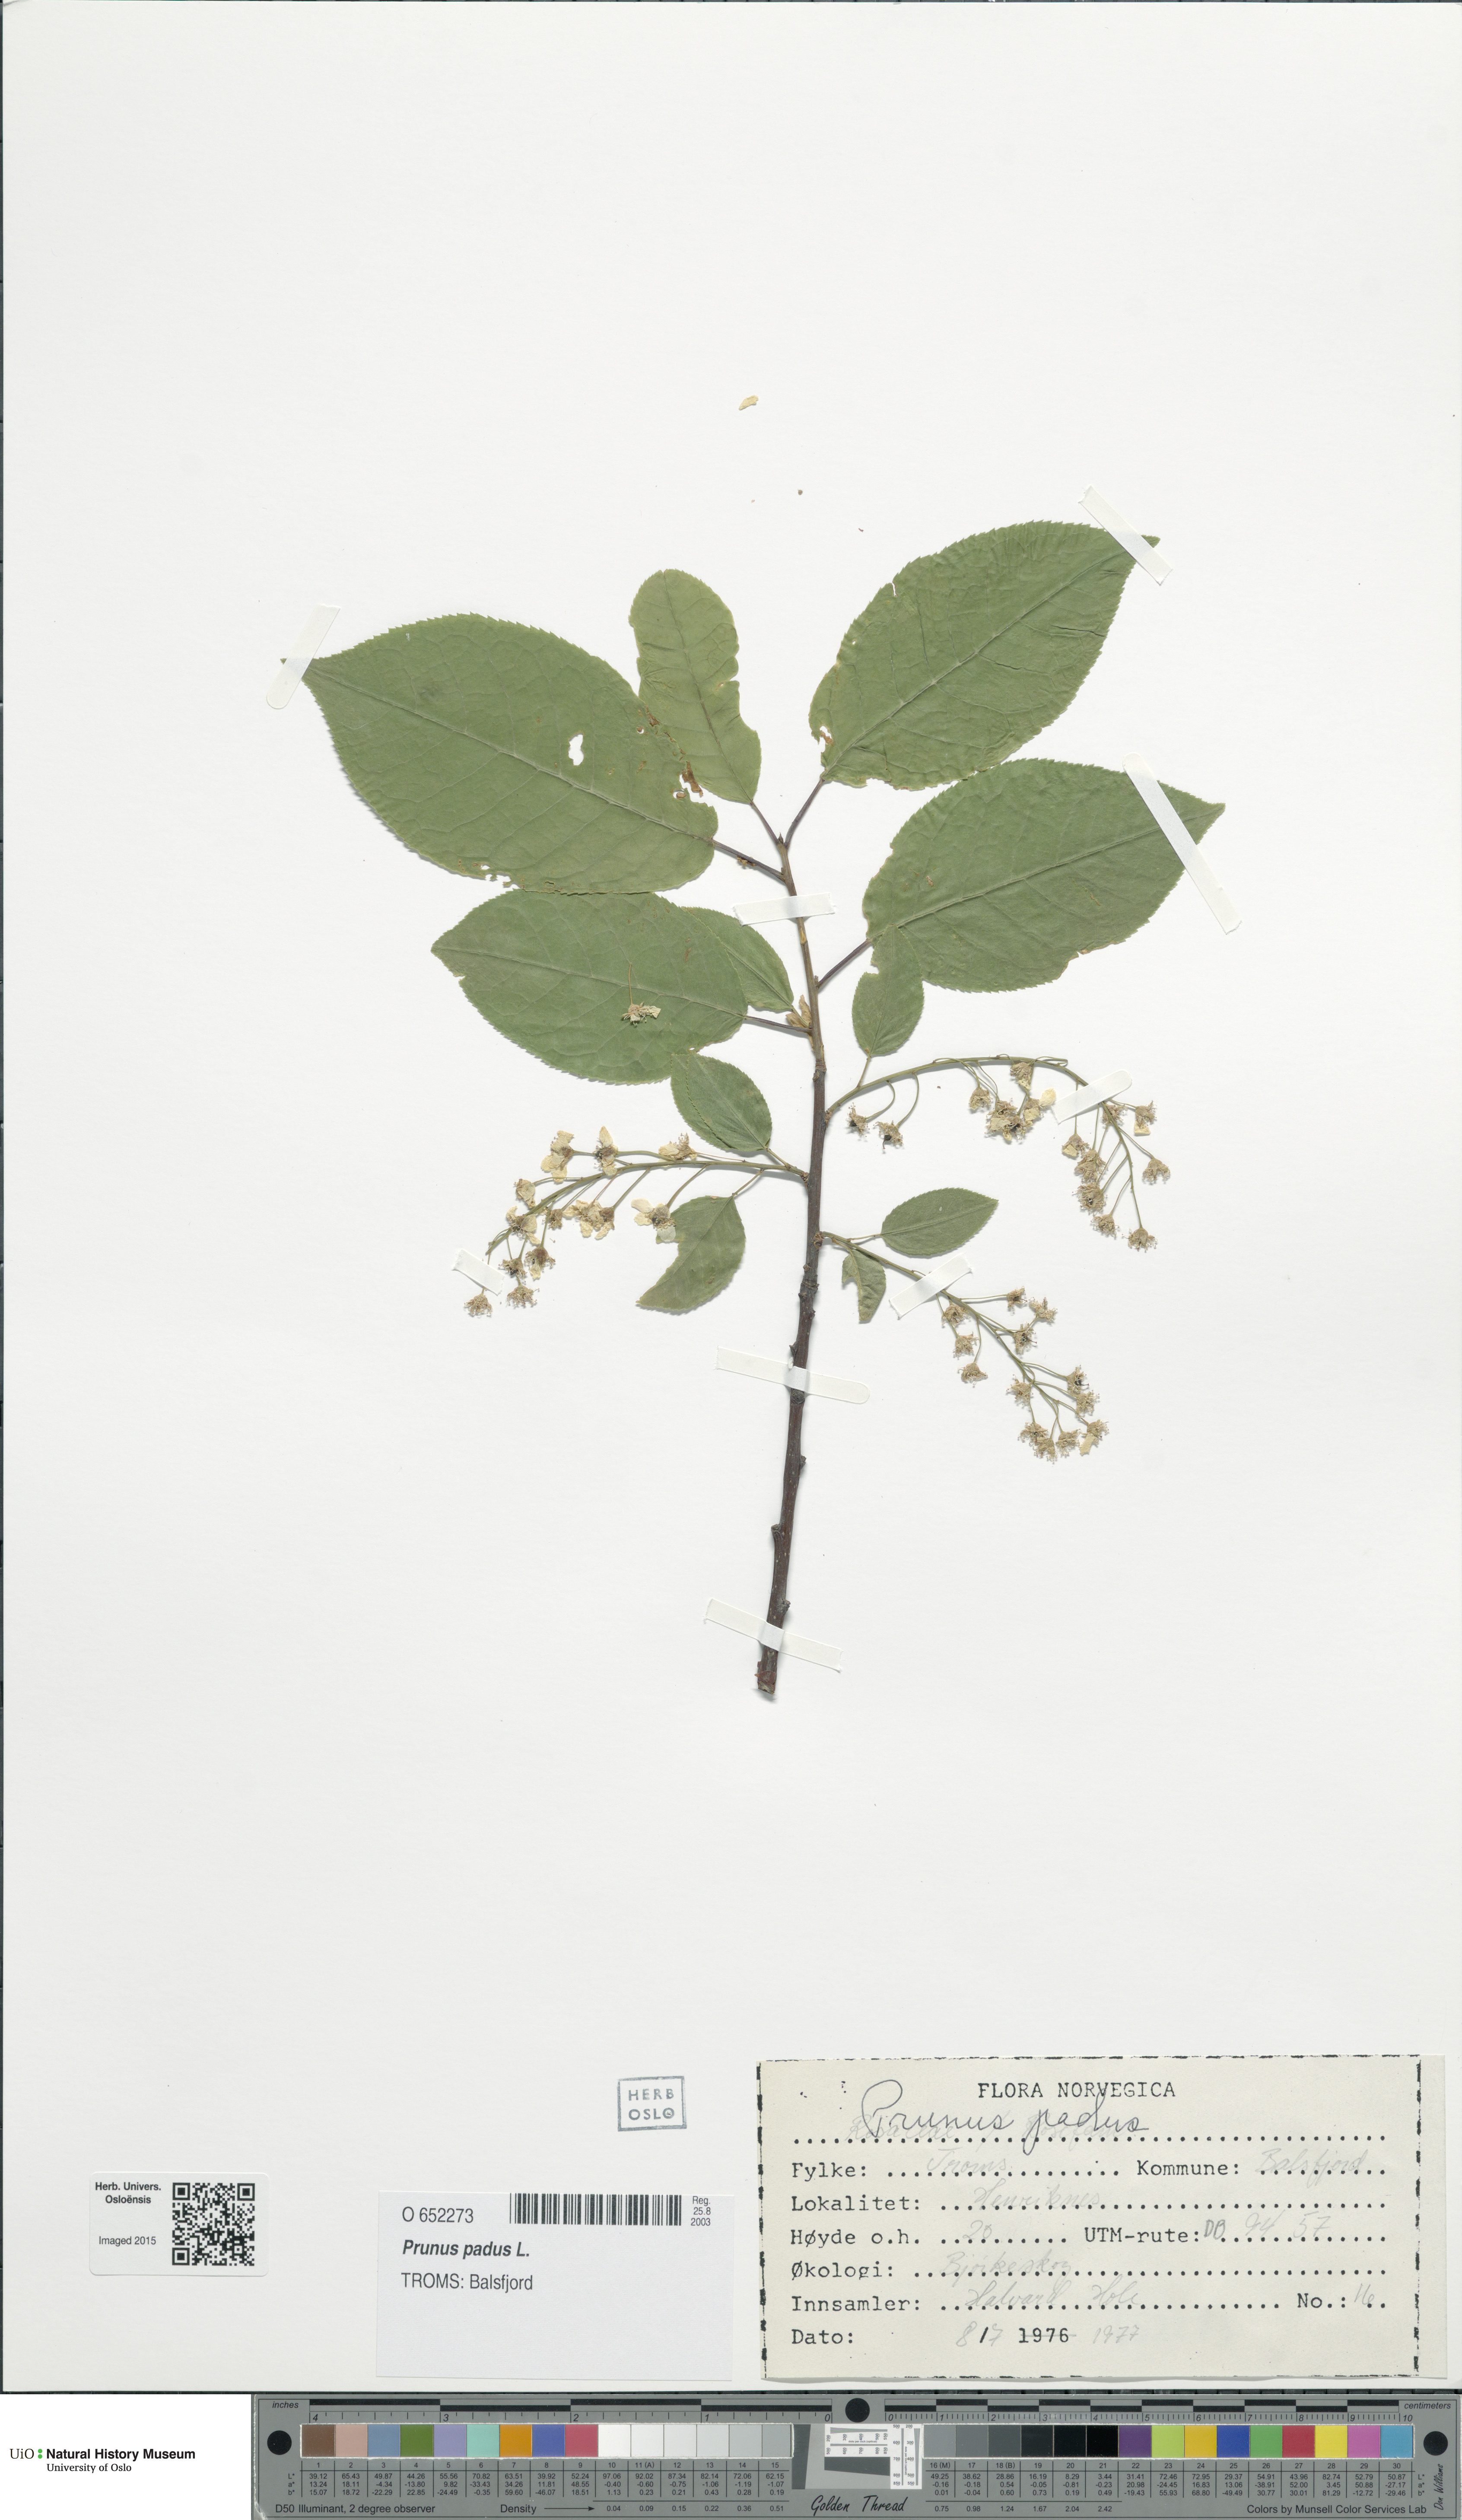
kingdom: Plantae
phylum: Tracheophyta
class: Magnoliopsida
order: Rosales
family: Rosaceae
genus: Prunus
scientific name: Prunus padus
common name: Bird cherry
